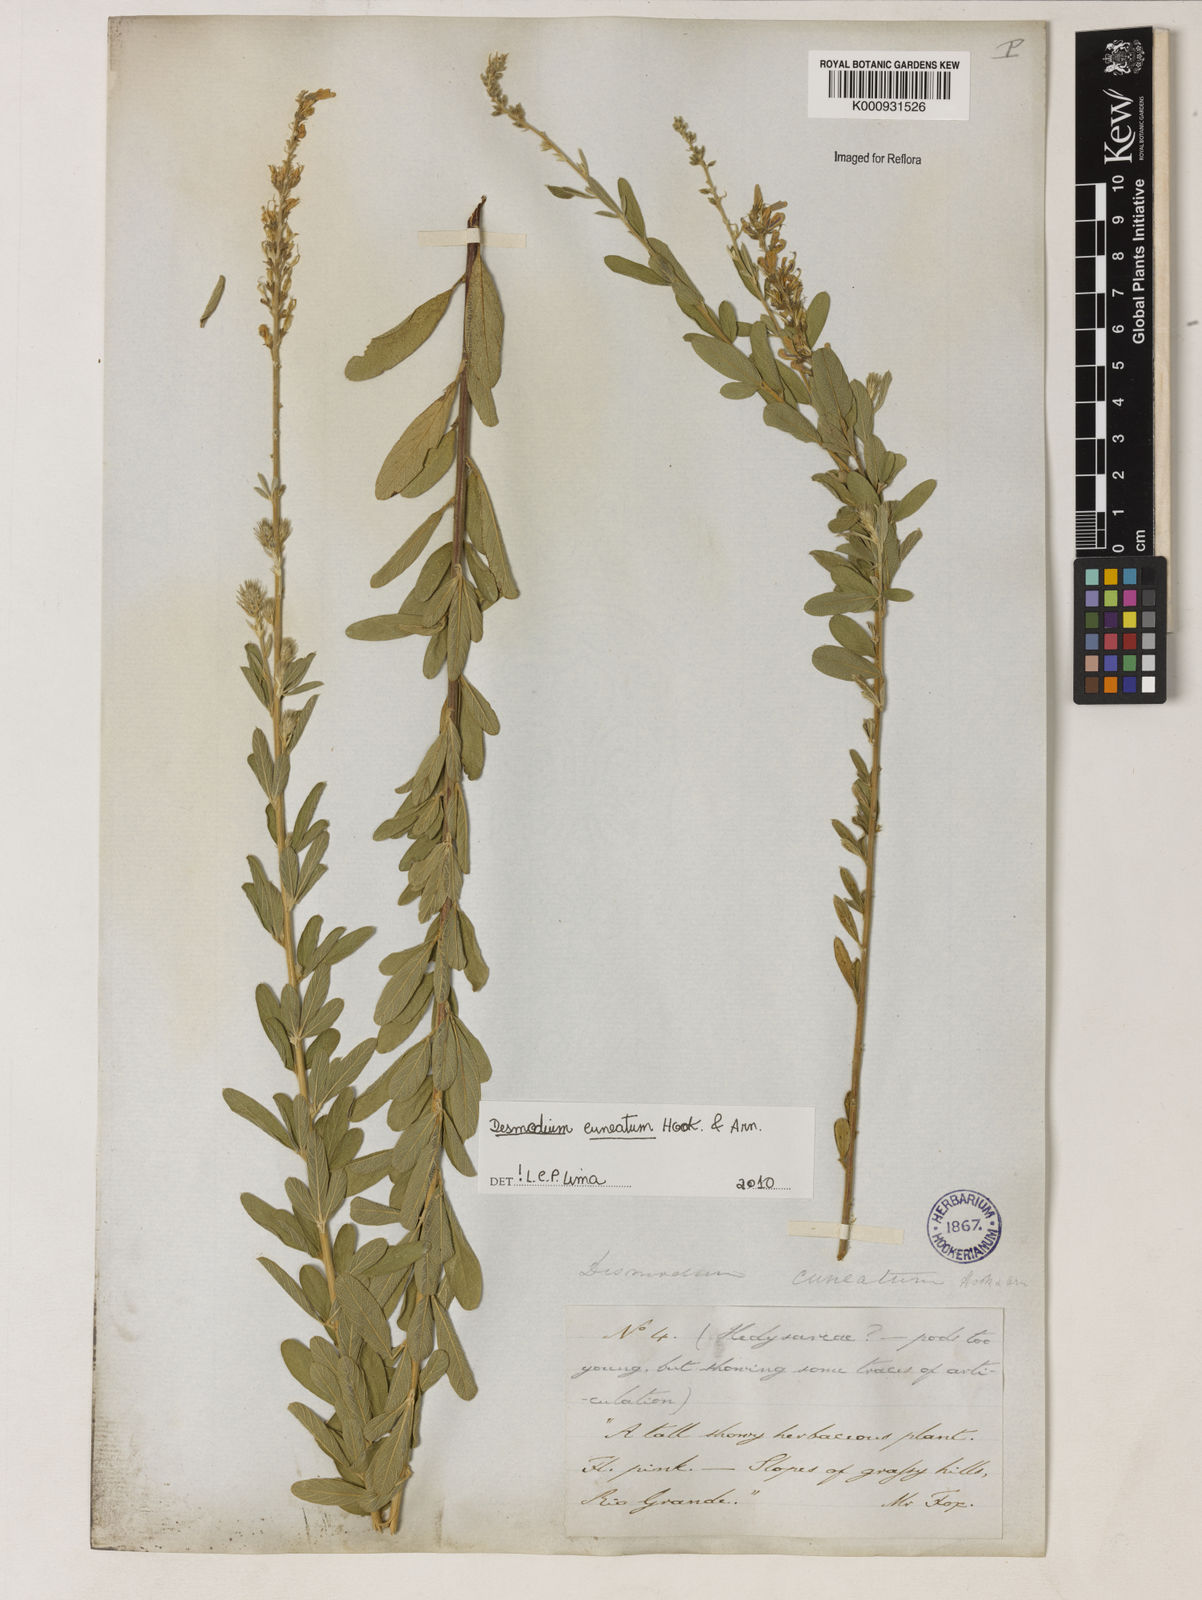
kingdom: Plantae
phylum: Tracheophyta
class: Magnoliopsida
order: Fabales
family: Fabaceae
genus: Desmodium
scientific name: Desmodium cuneatum
